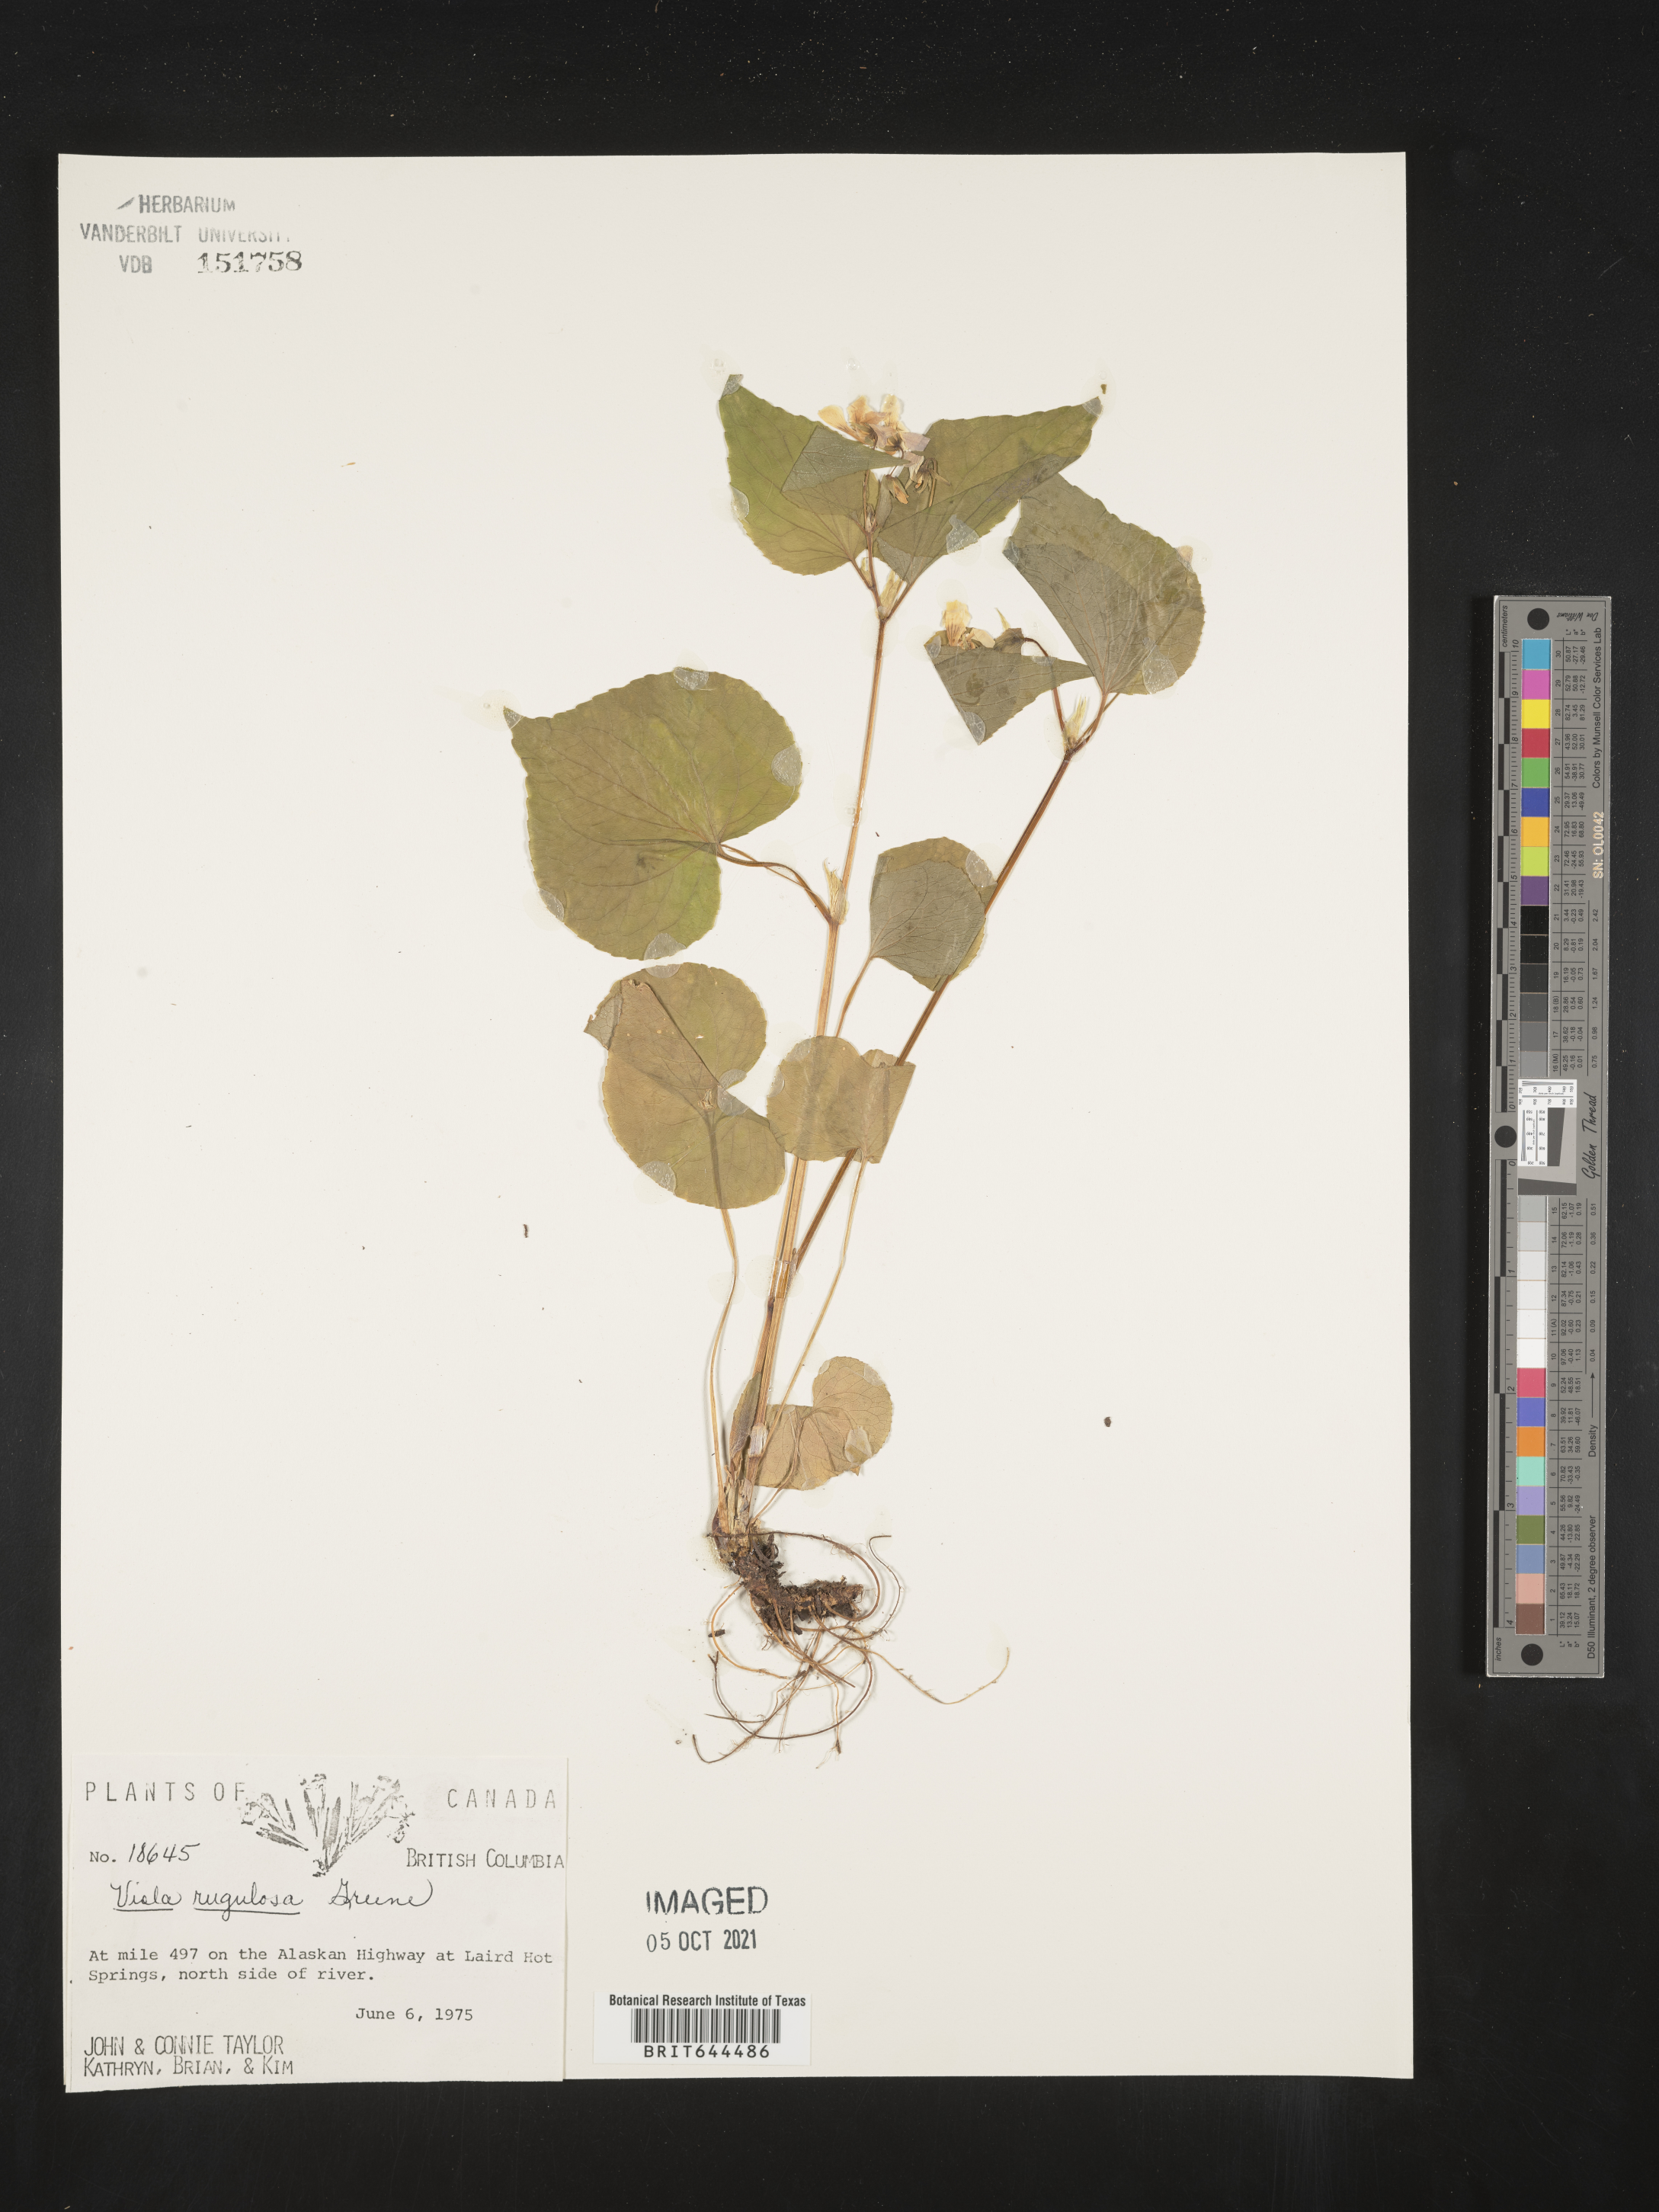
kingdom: Plantae
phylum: Tracheophyta
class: Magnoliopsida
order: Malpighiales
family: Violaceae
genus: Viola
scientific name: Viola
